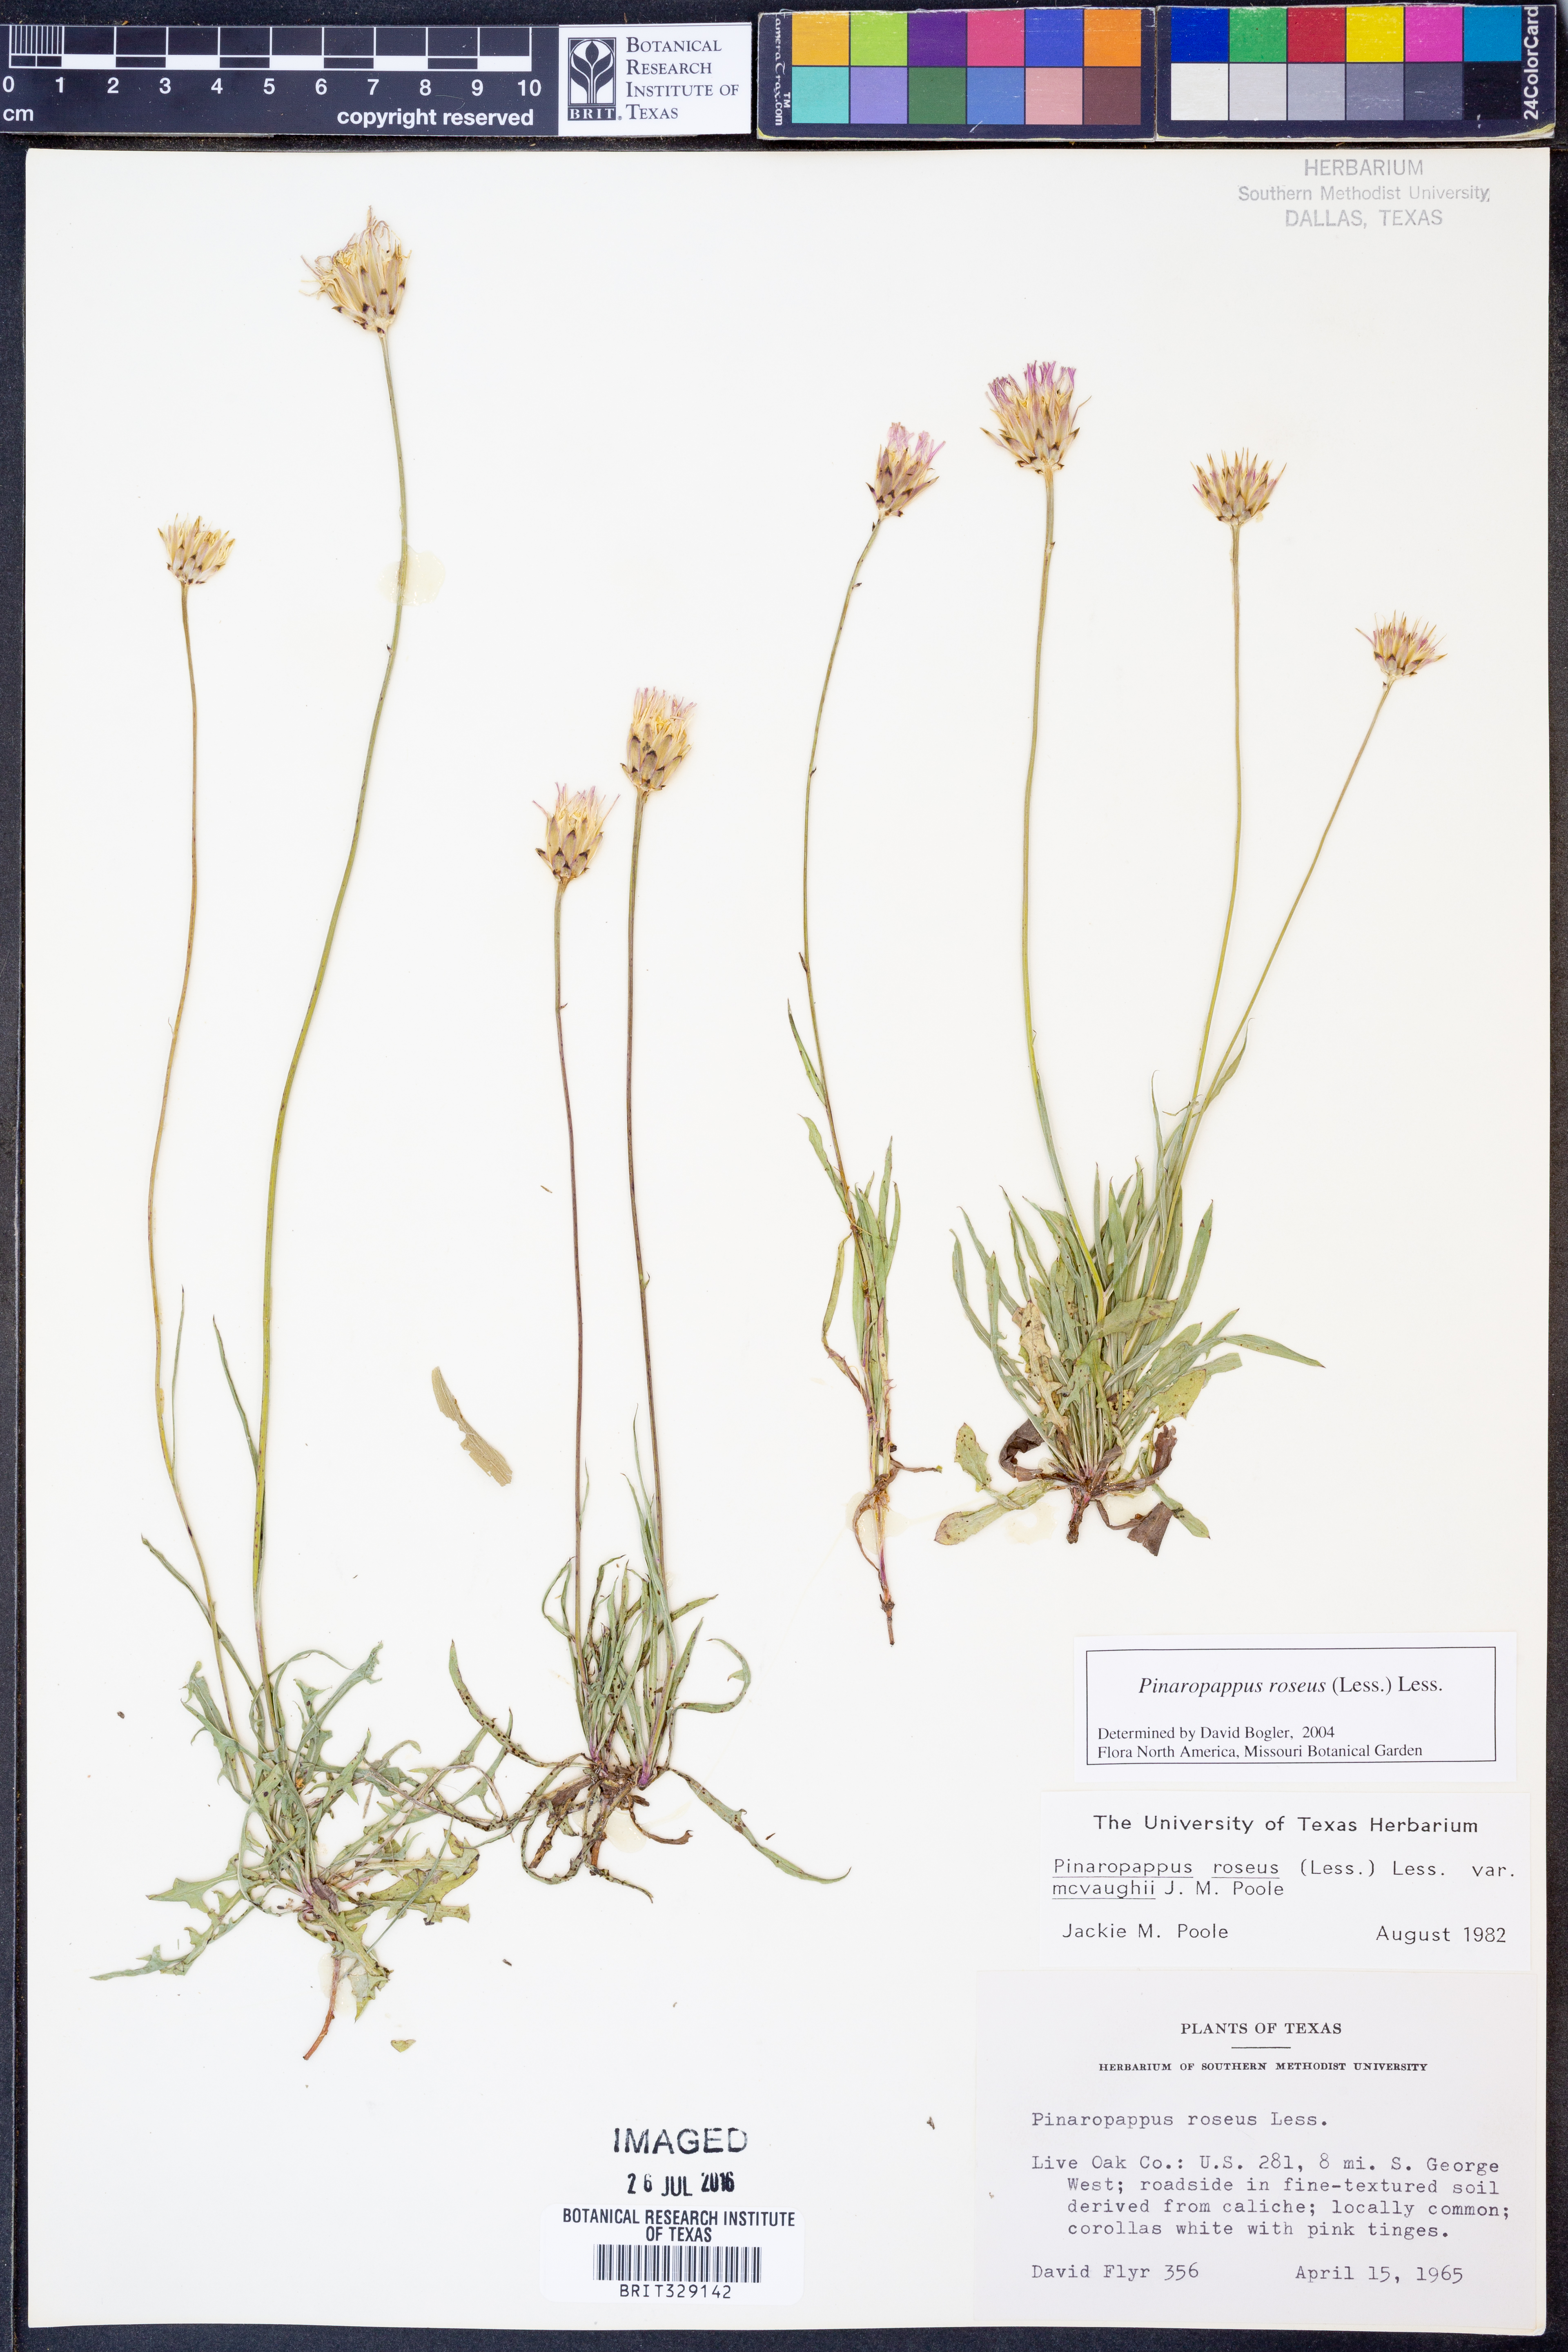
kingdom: Plantae
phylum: Tracheophyta
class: Magnoliopsida
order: Asterales
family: Asteraceae
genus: Pinaropappus
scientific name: Pinaropappus roseus
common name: Rock-lettuce
